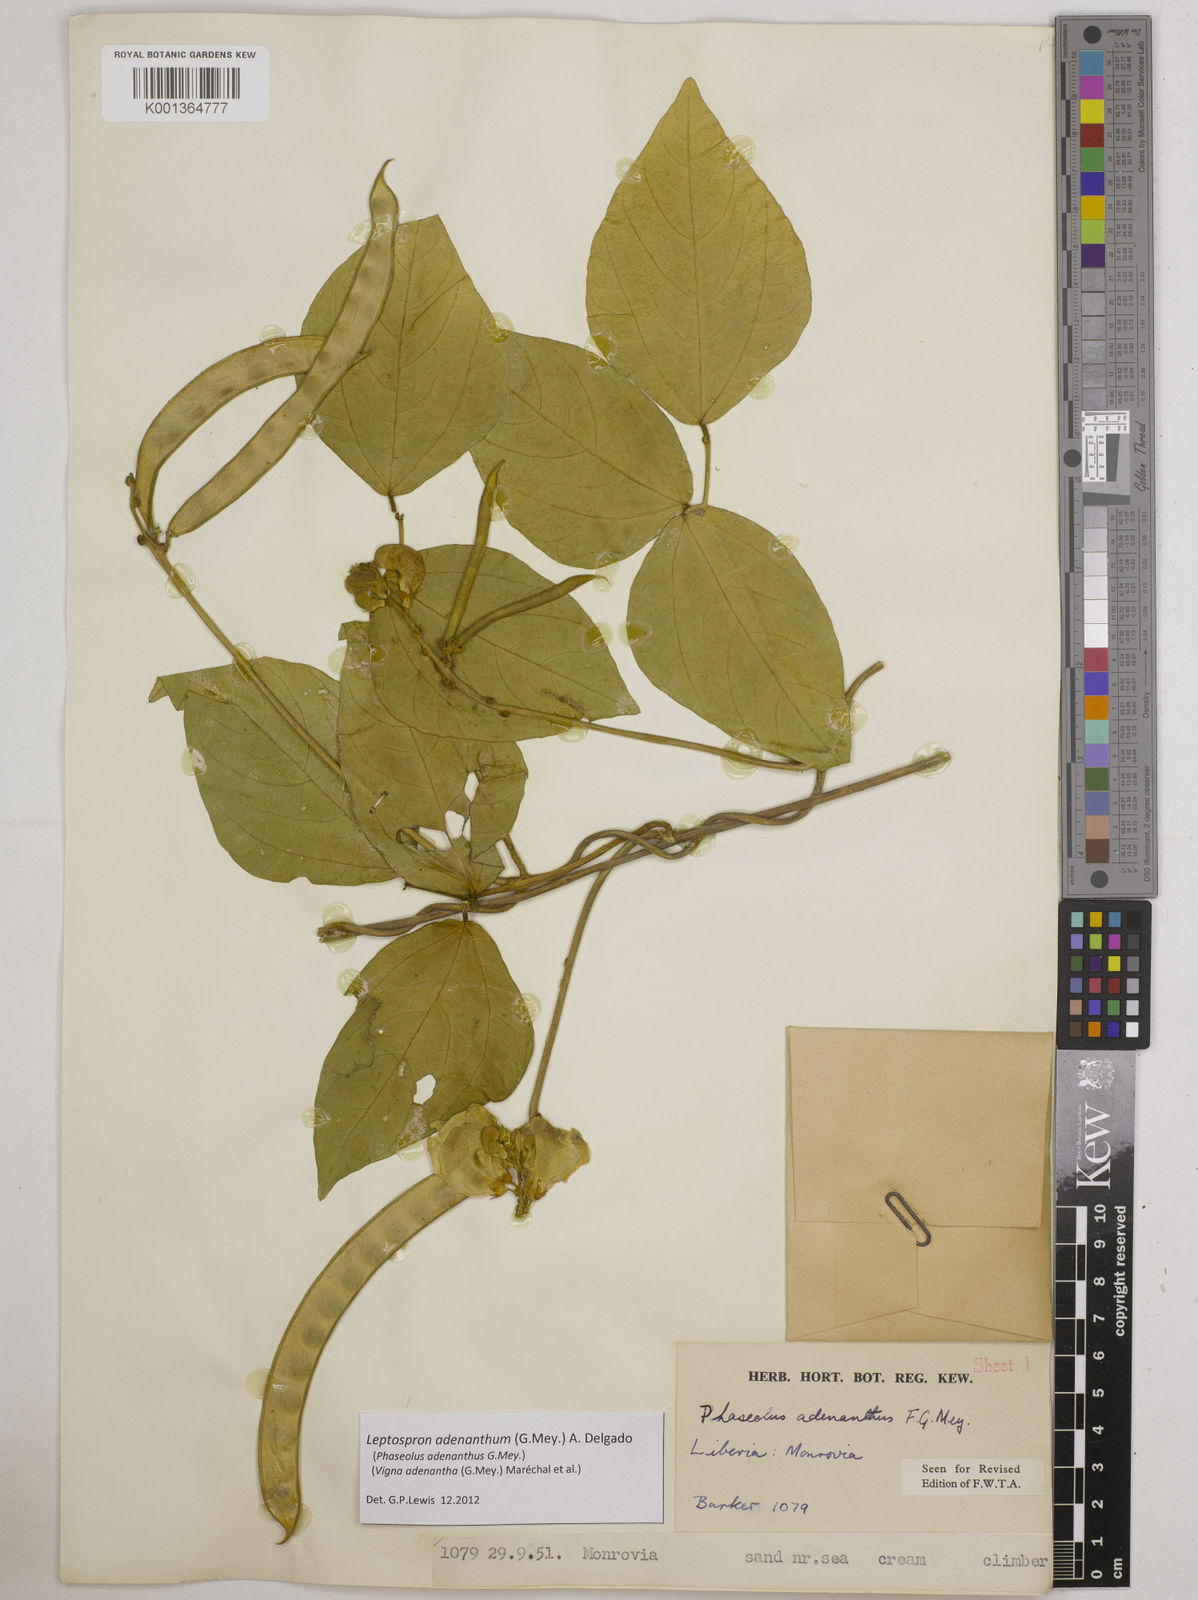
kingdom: Plantae
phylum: Tracheophyta
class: Magnoliopsida
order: Fabales
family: Fabaceae
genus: Leptospron
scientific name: Leptospron adenanthum
